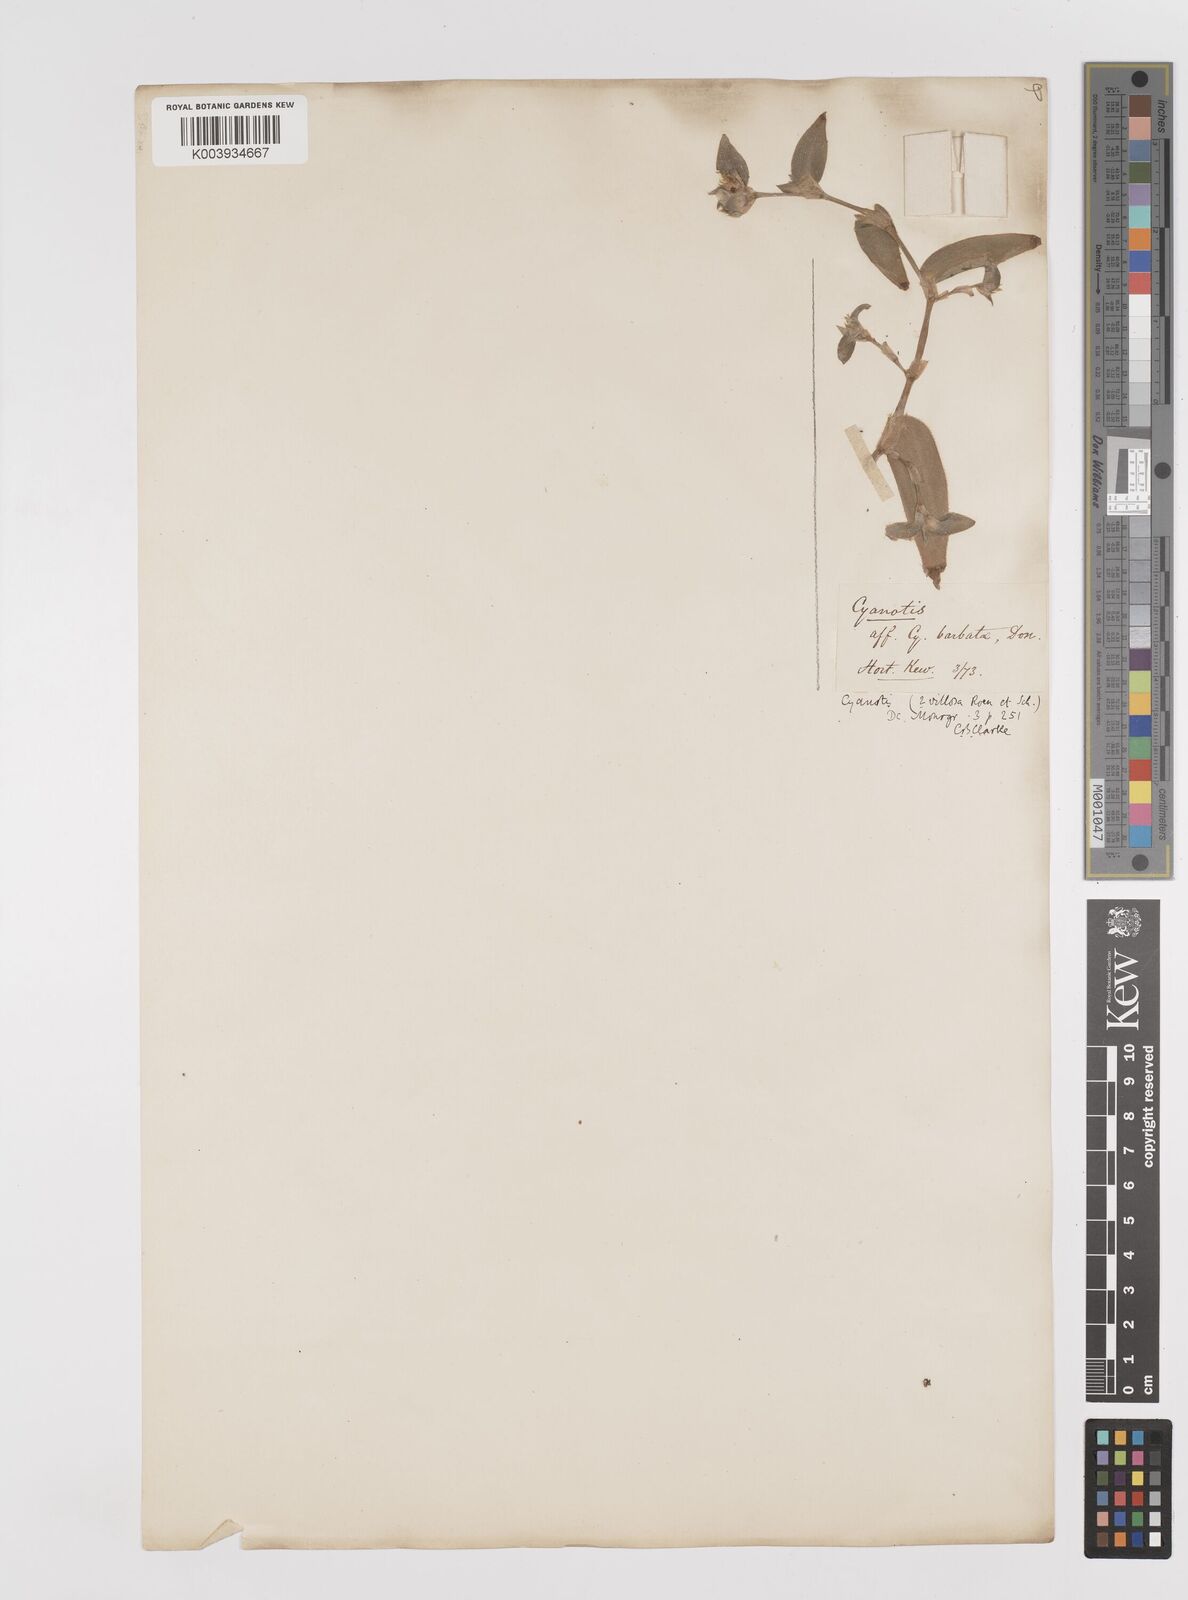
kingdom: Plantae
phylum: Tracheophyta
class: Liliopsida
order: Commelinales
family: Commelinaceae
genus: Cyanotis
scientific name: Cyanotis villosa
